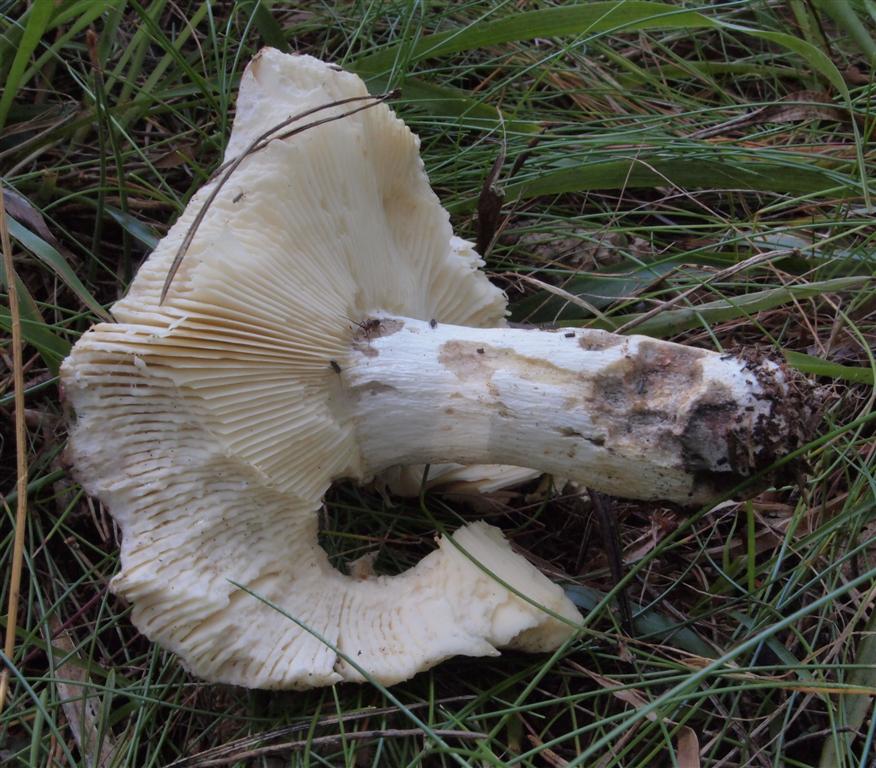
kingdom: Fungi
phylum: Basidiomycota
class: Agaricomycetes
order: Russulales
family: Russulaceae
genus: Russula
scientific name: Russula decolorans
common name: afblegende skørhat
